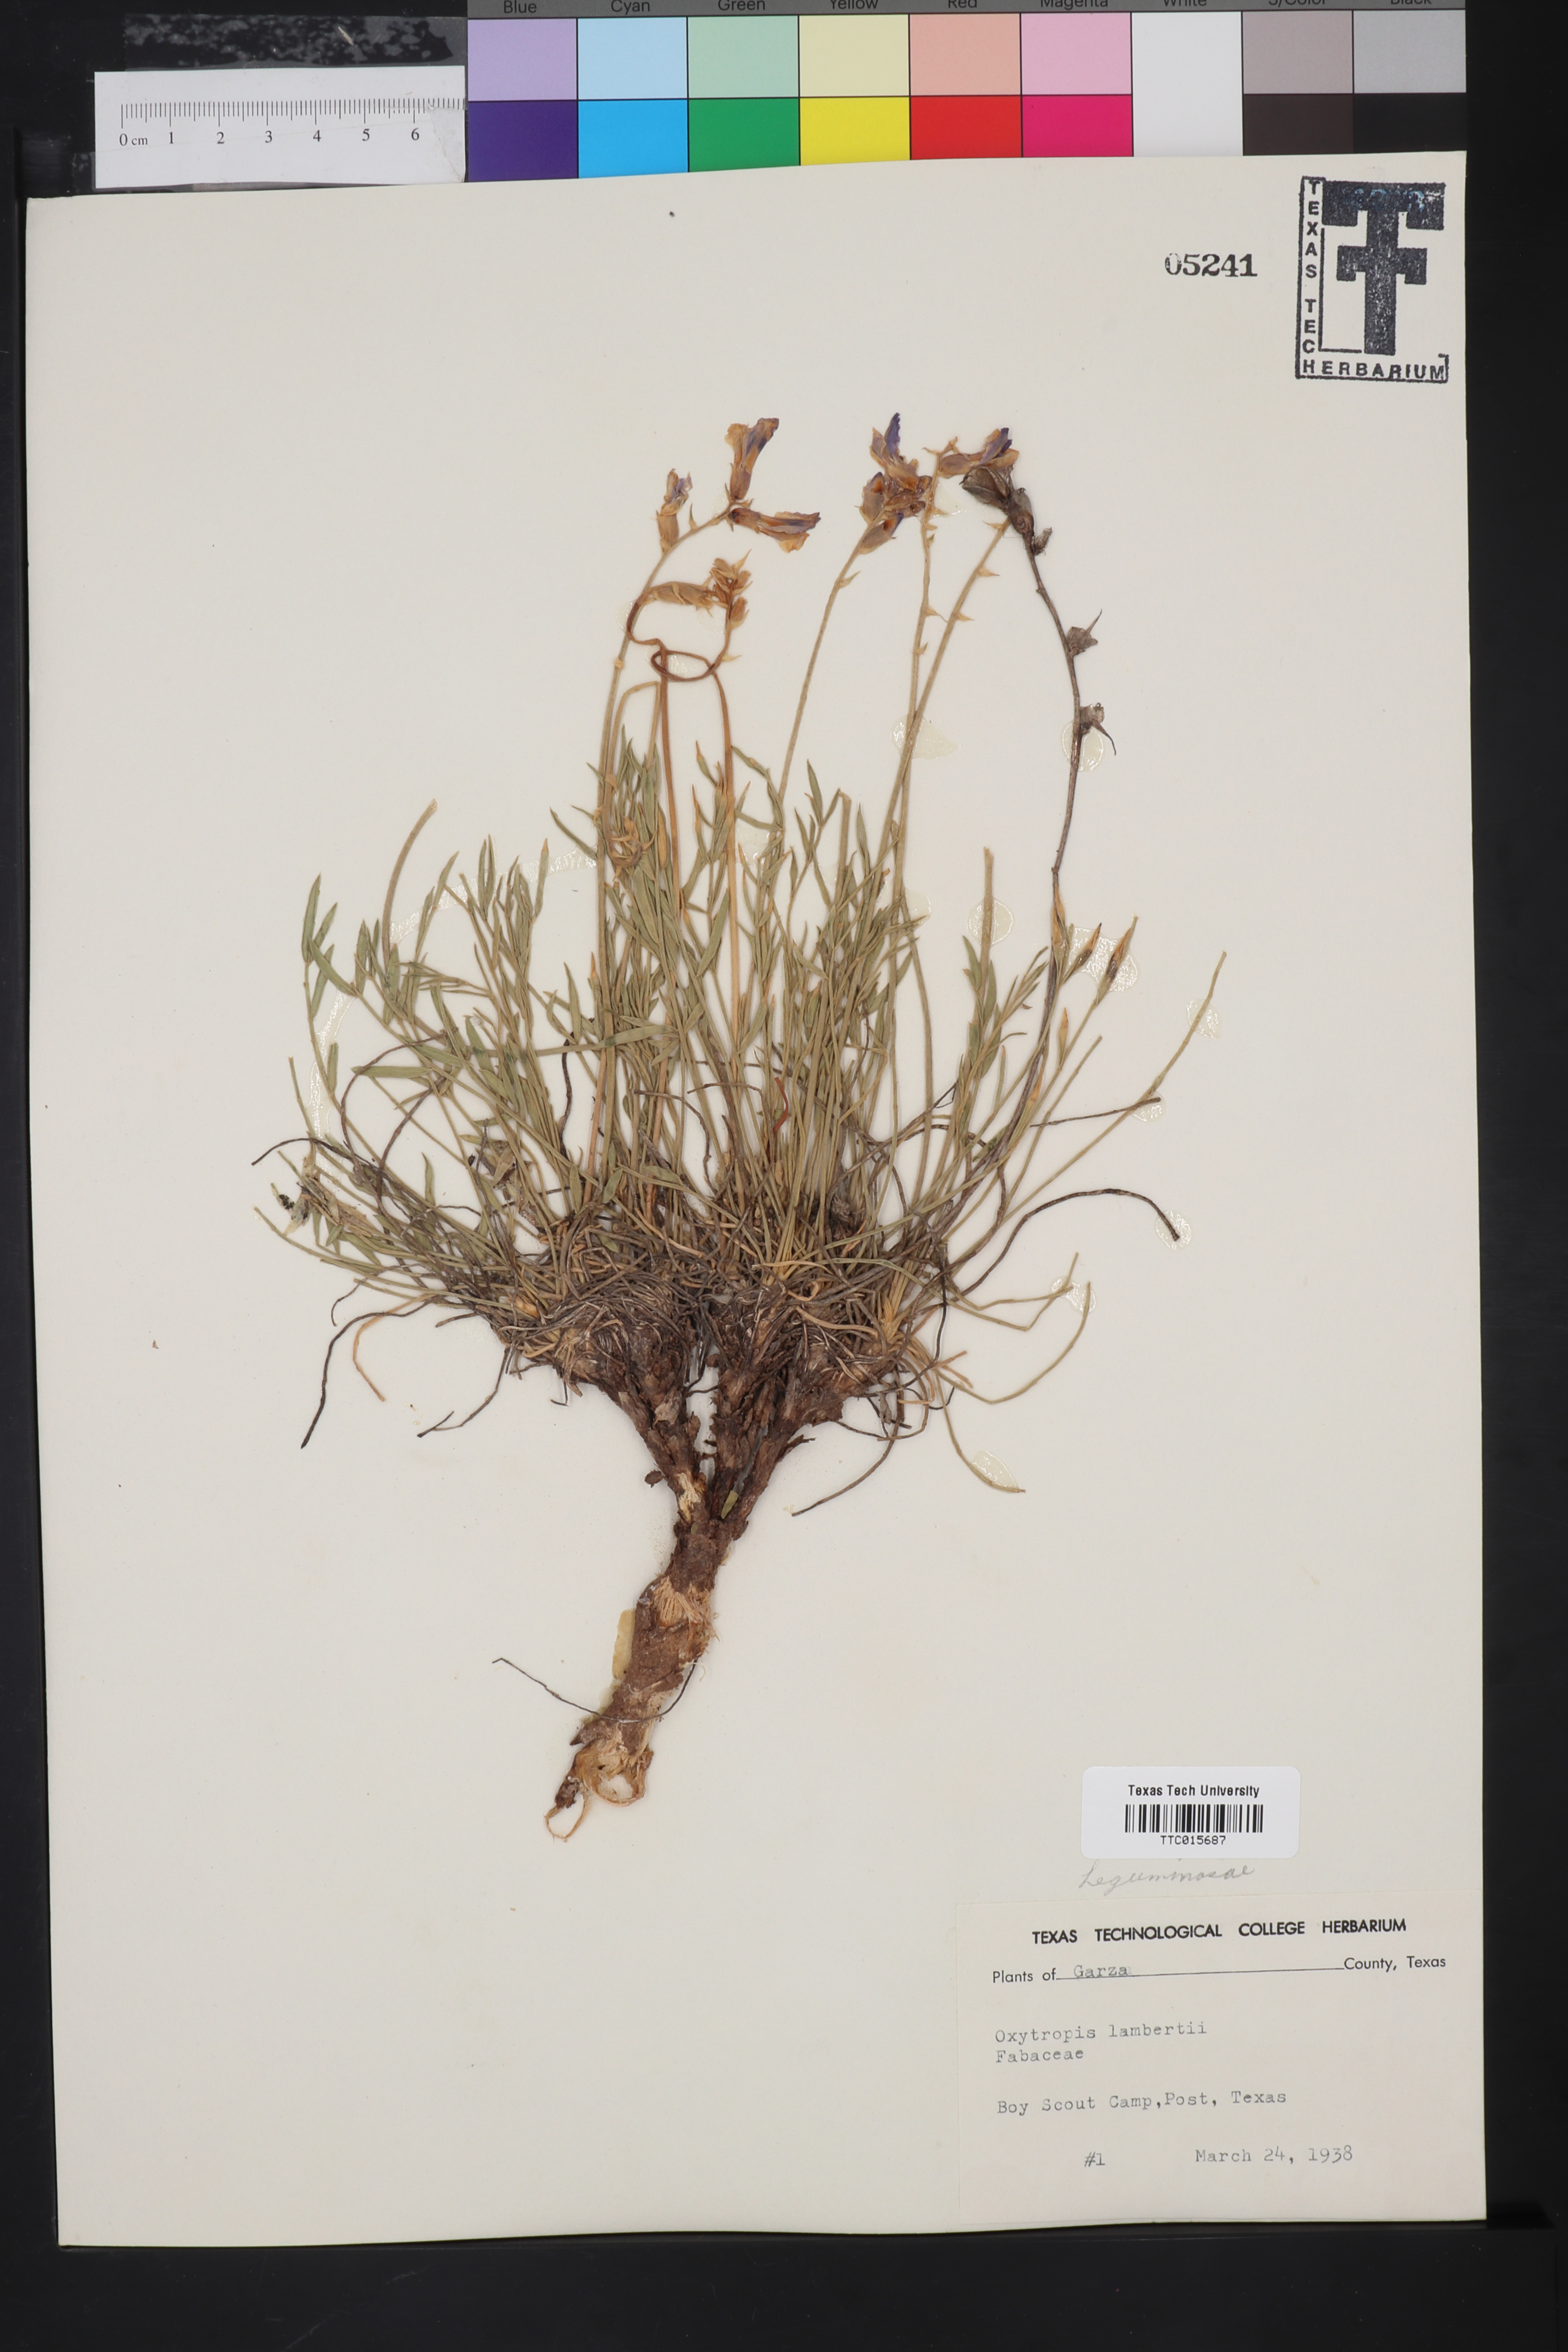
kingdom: Plantae
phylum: Tracheophyta
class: Magnoliopsida
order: Fabales
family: Fabaceae
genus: Oxytropis
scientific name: Oxytropis lambertii
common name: Purple locoweed
